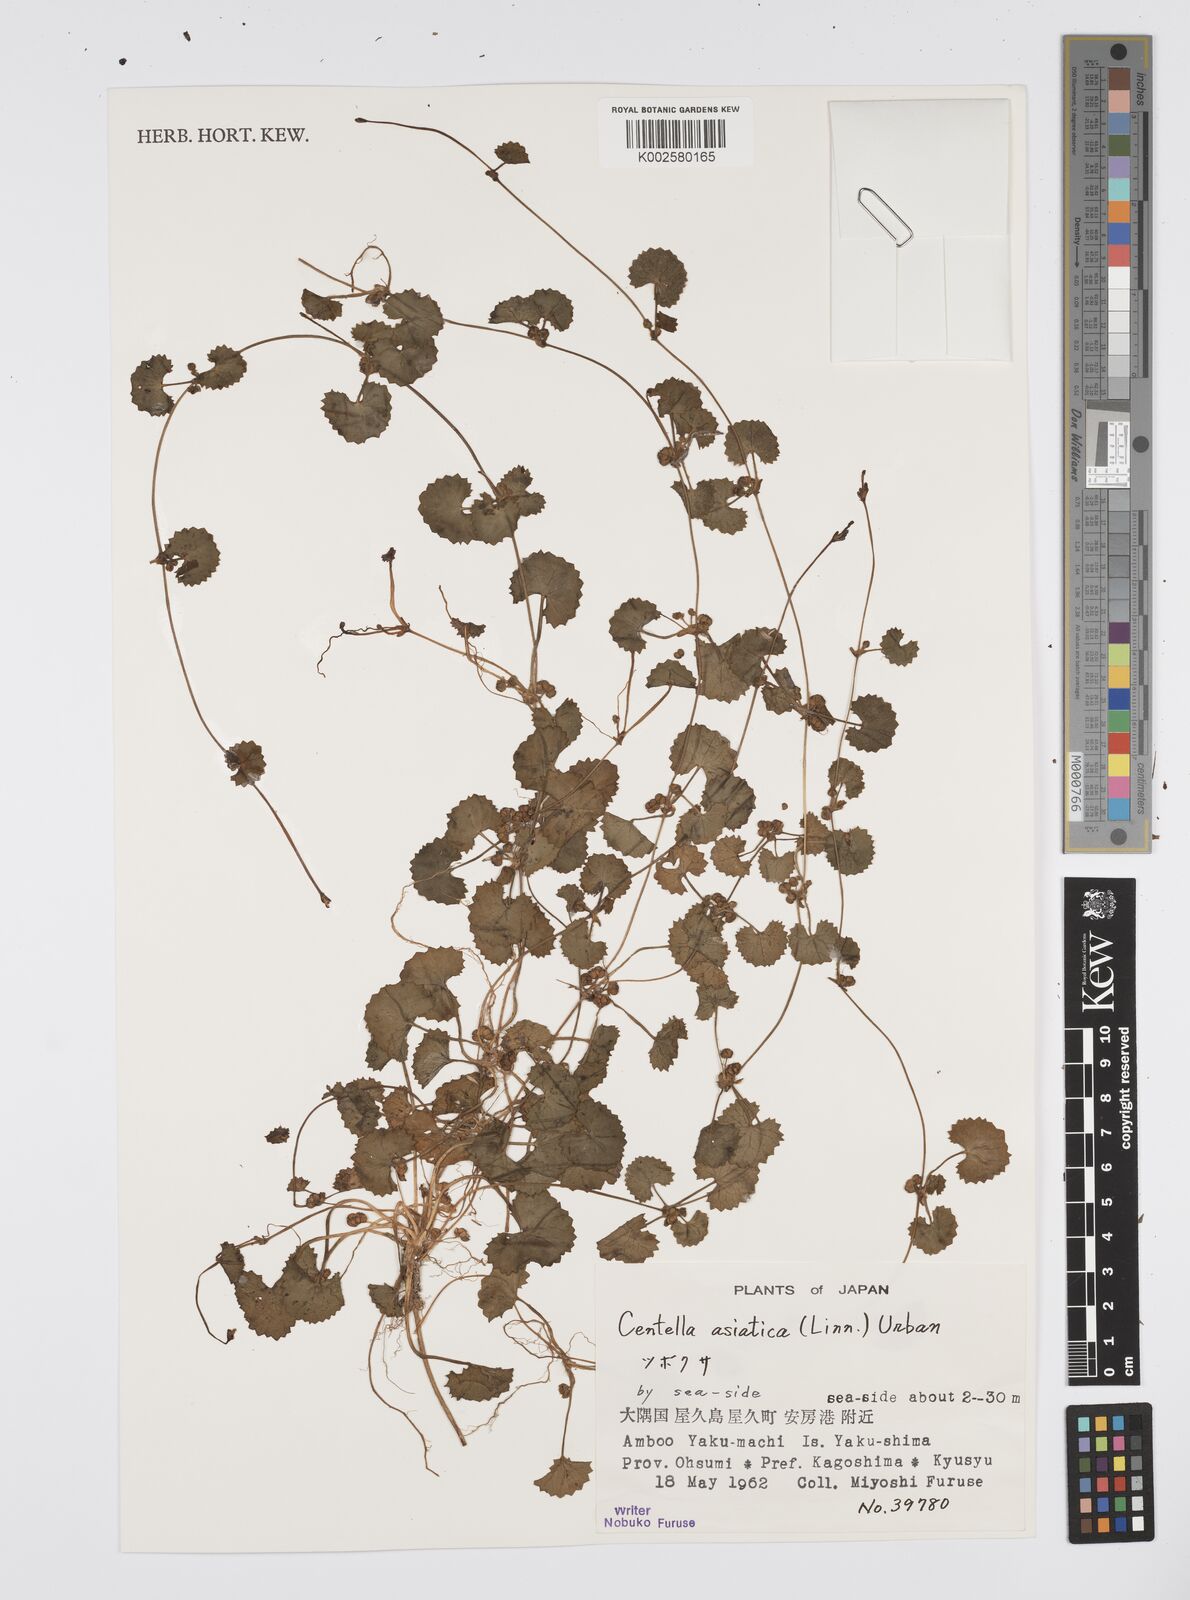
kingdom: Plantae
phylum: Tracheophyta
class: Magnoliopsida
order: Apiales
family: Apiaceae
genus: Centella
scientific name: Centella asiatica
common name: Spadeleaf
